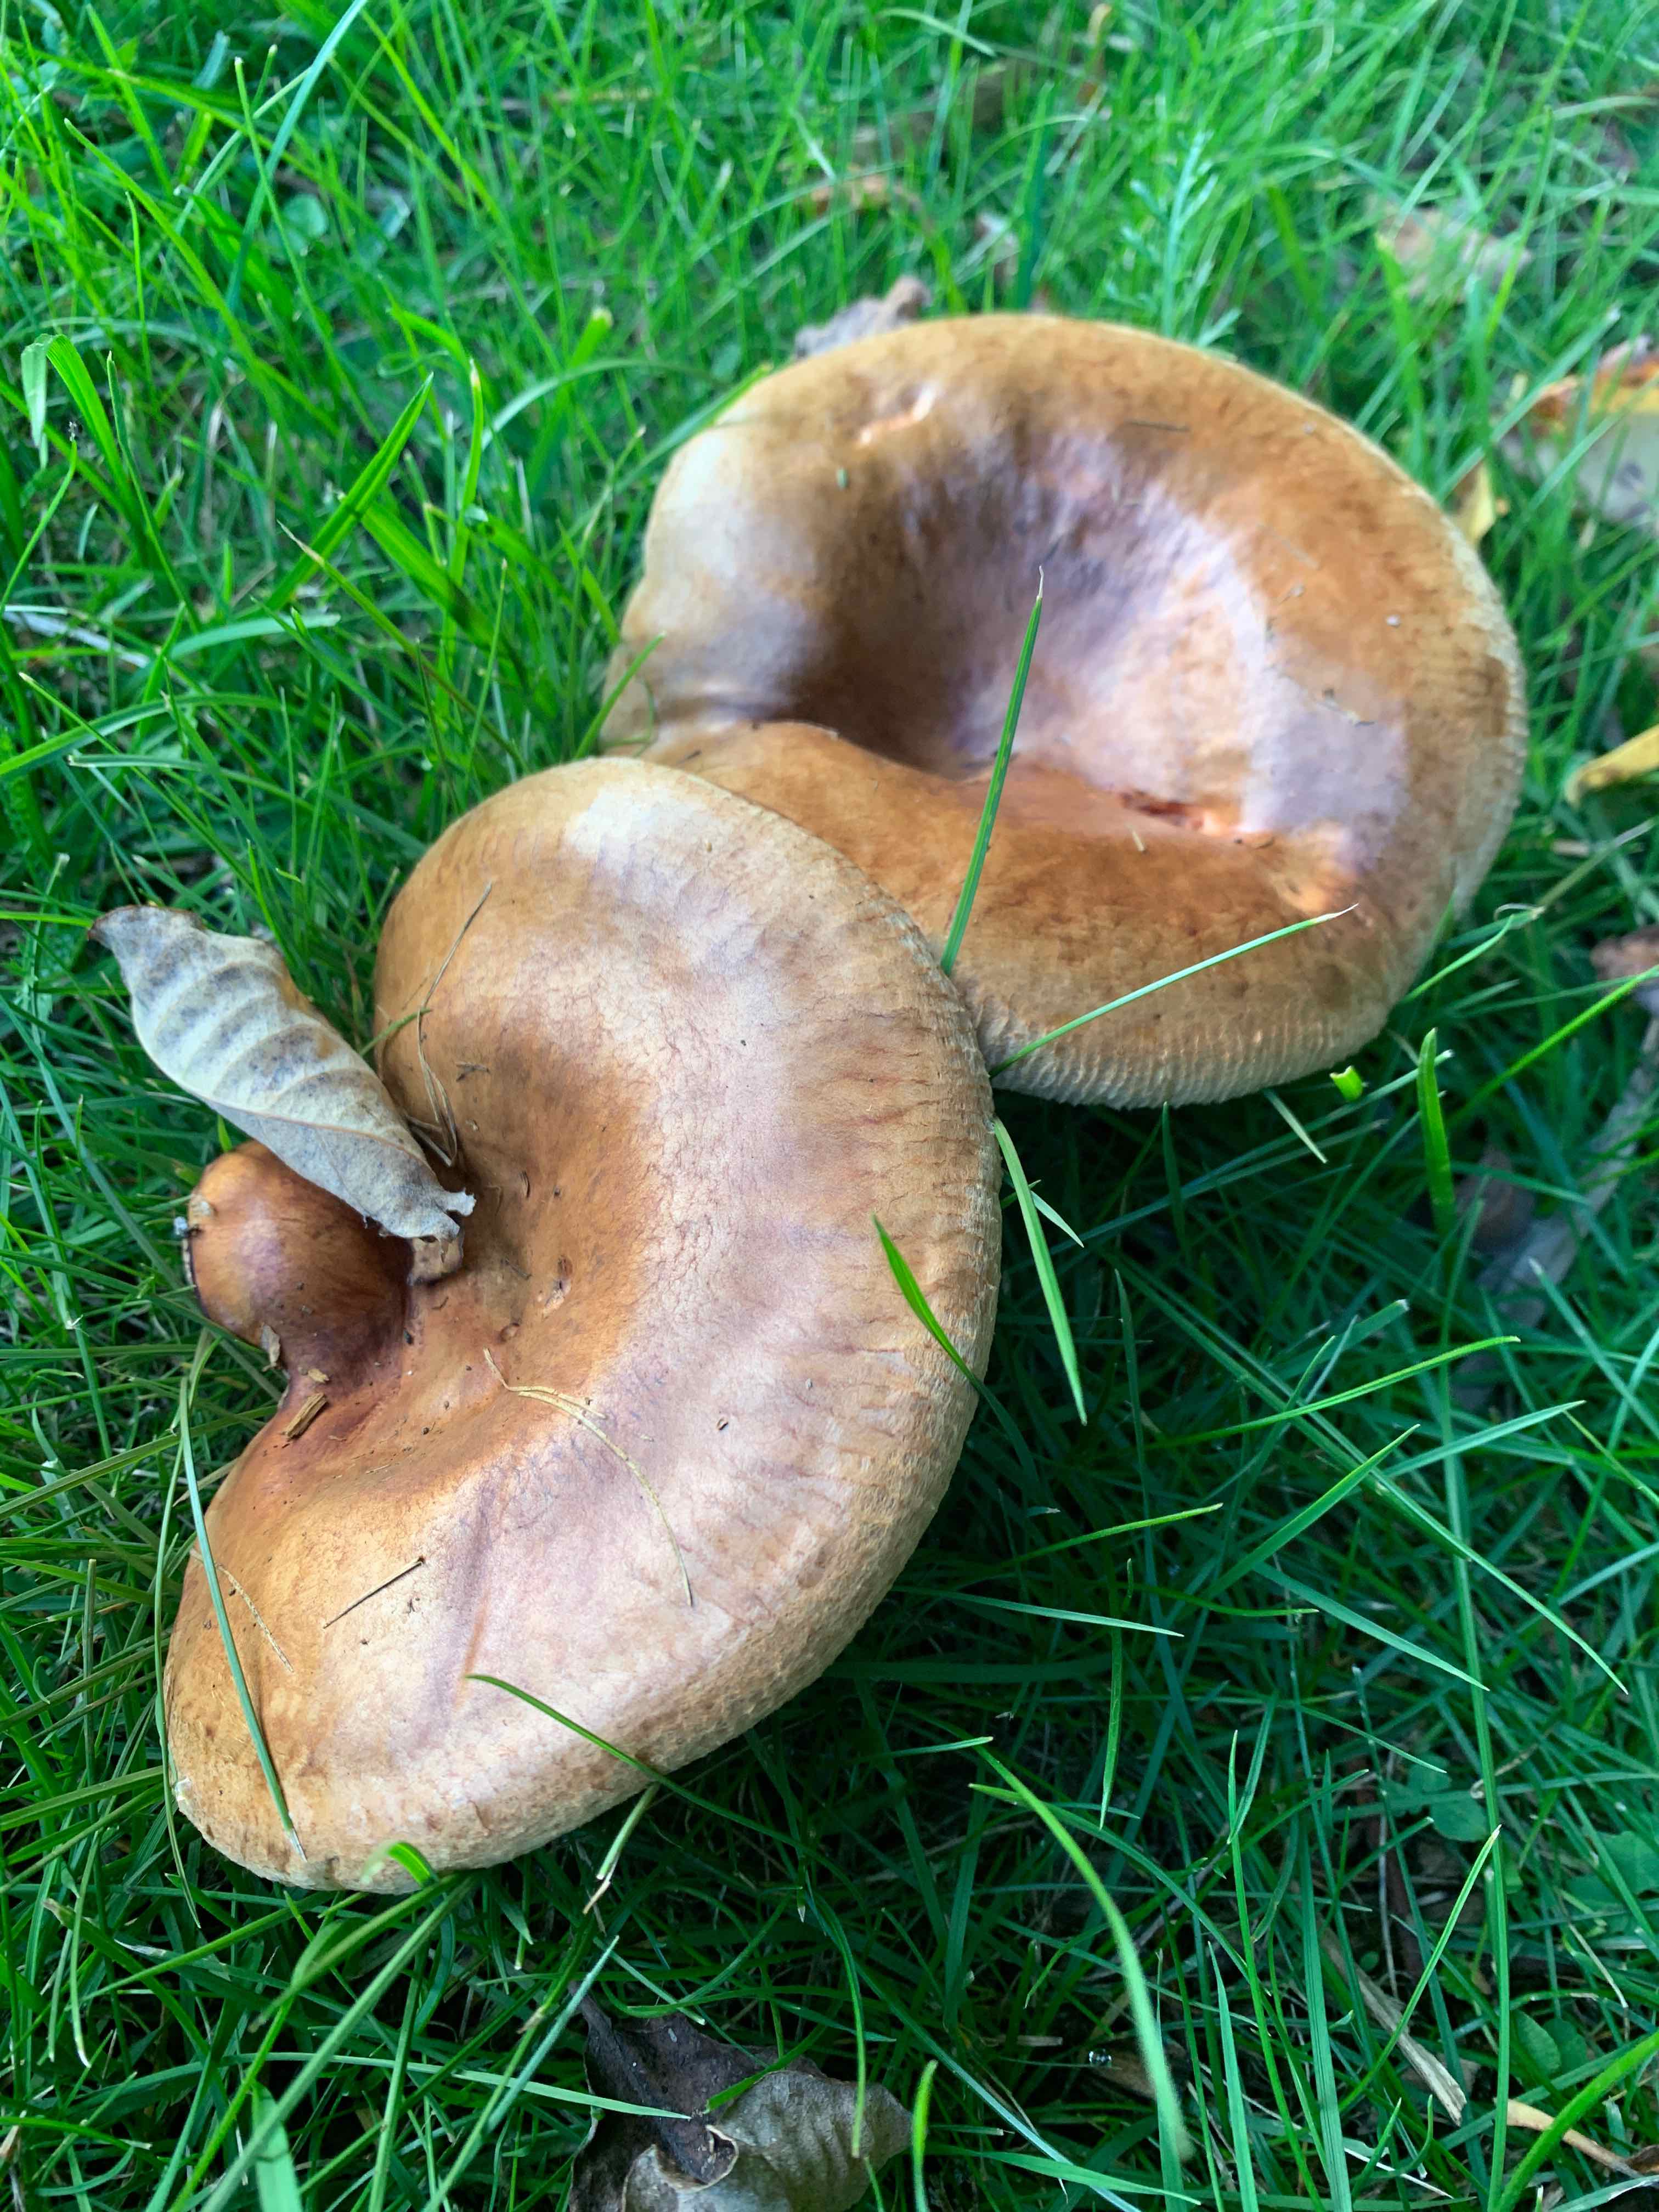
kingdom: Fungi
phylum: Basidiomycota
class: Agaricomycetes
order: Boletales
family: Paxillaceae
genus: Paxillus
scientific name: Paxillus
